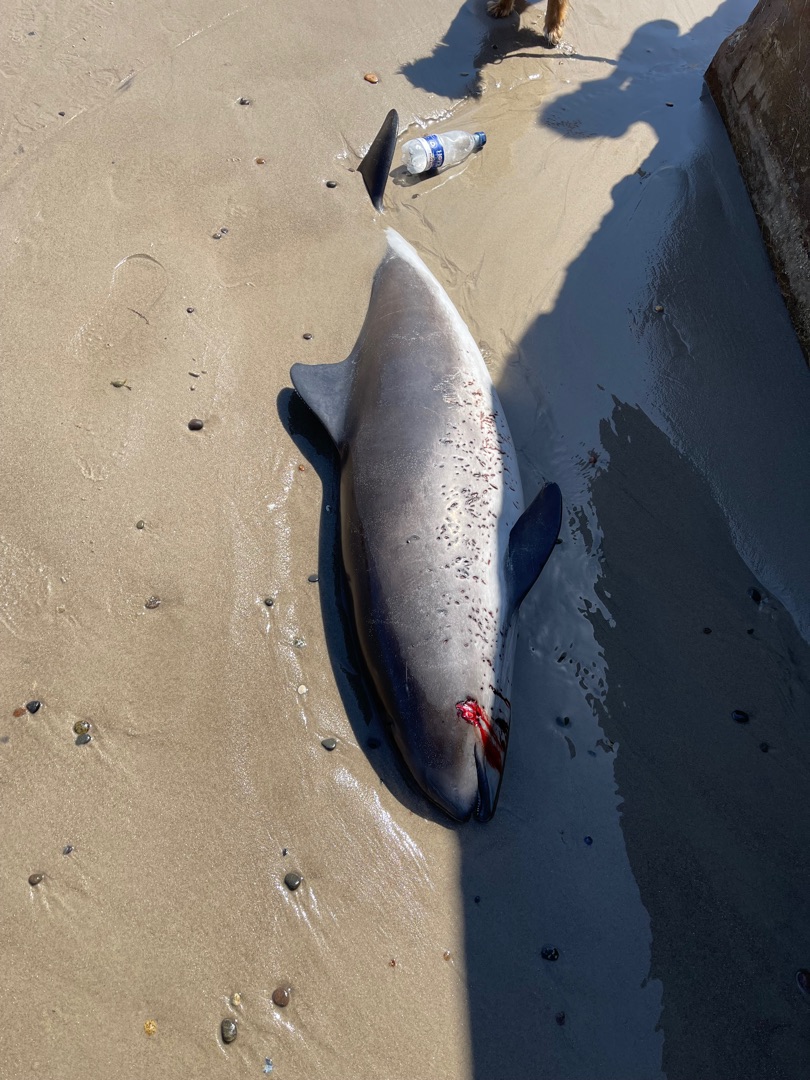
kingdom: Animalia
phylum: Chordata
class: Mammalia
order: Cetacea
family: Phocoenidae
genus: Phocoena
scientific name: Phocoena phocoena
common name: Marsvin
